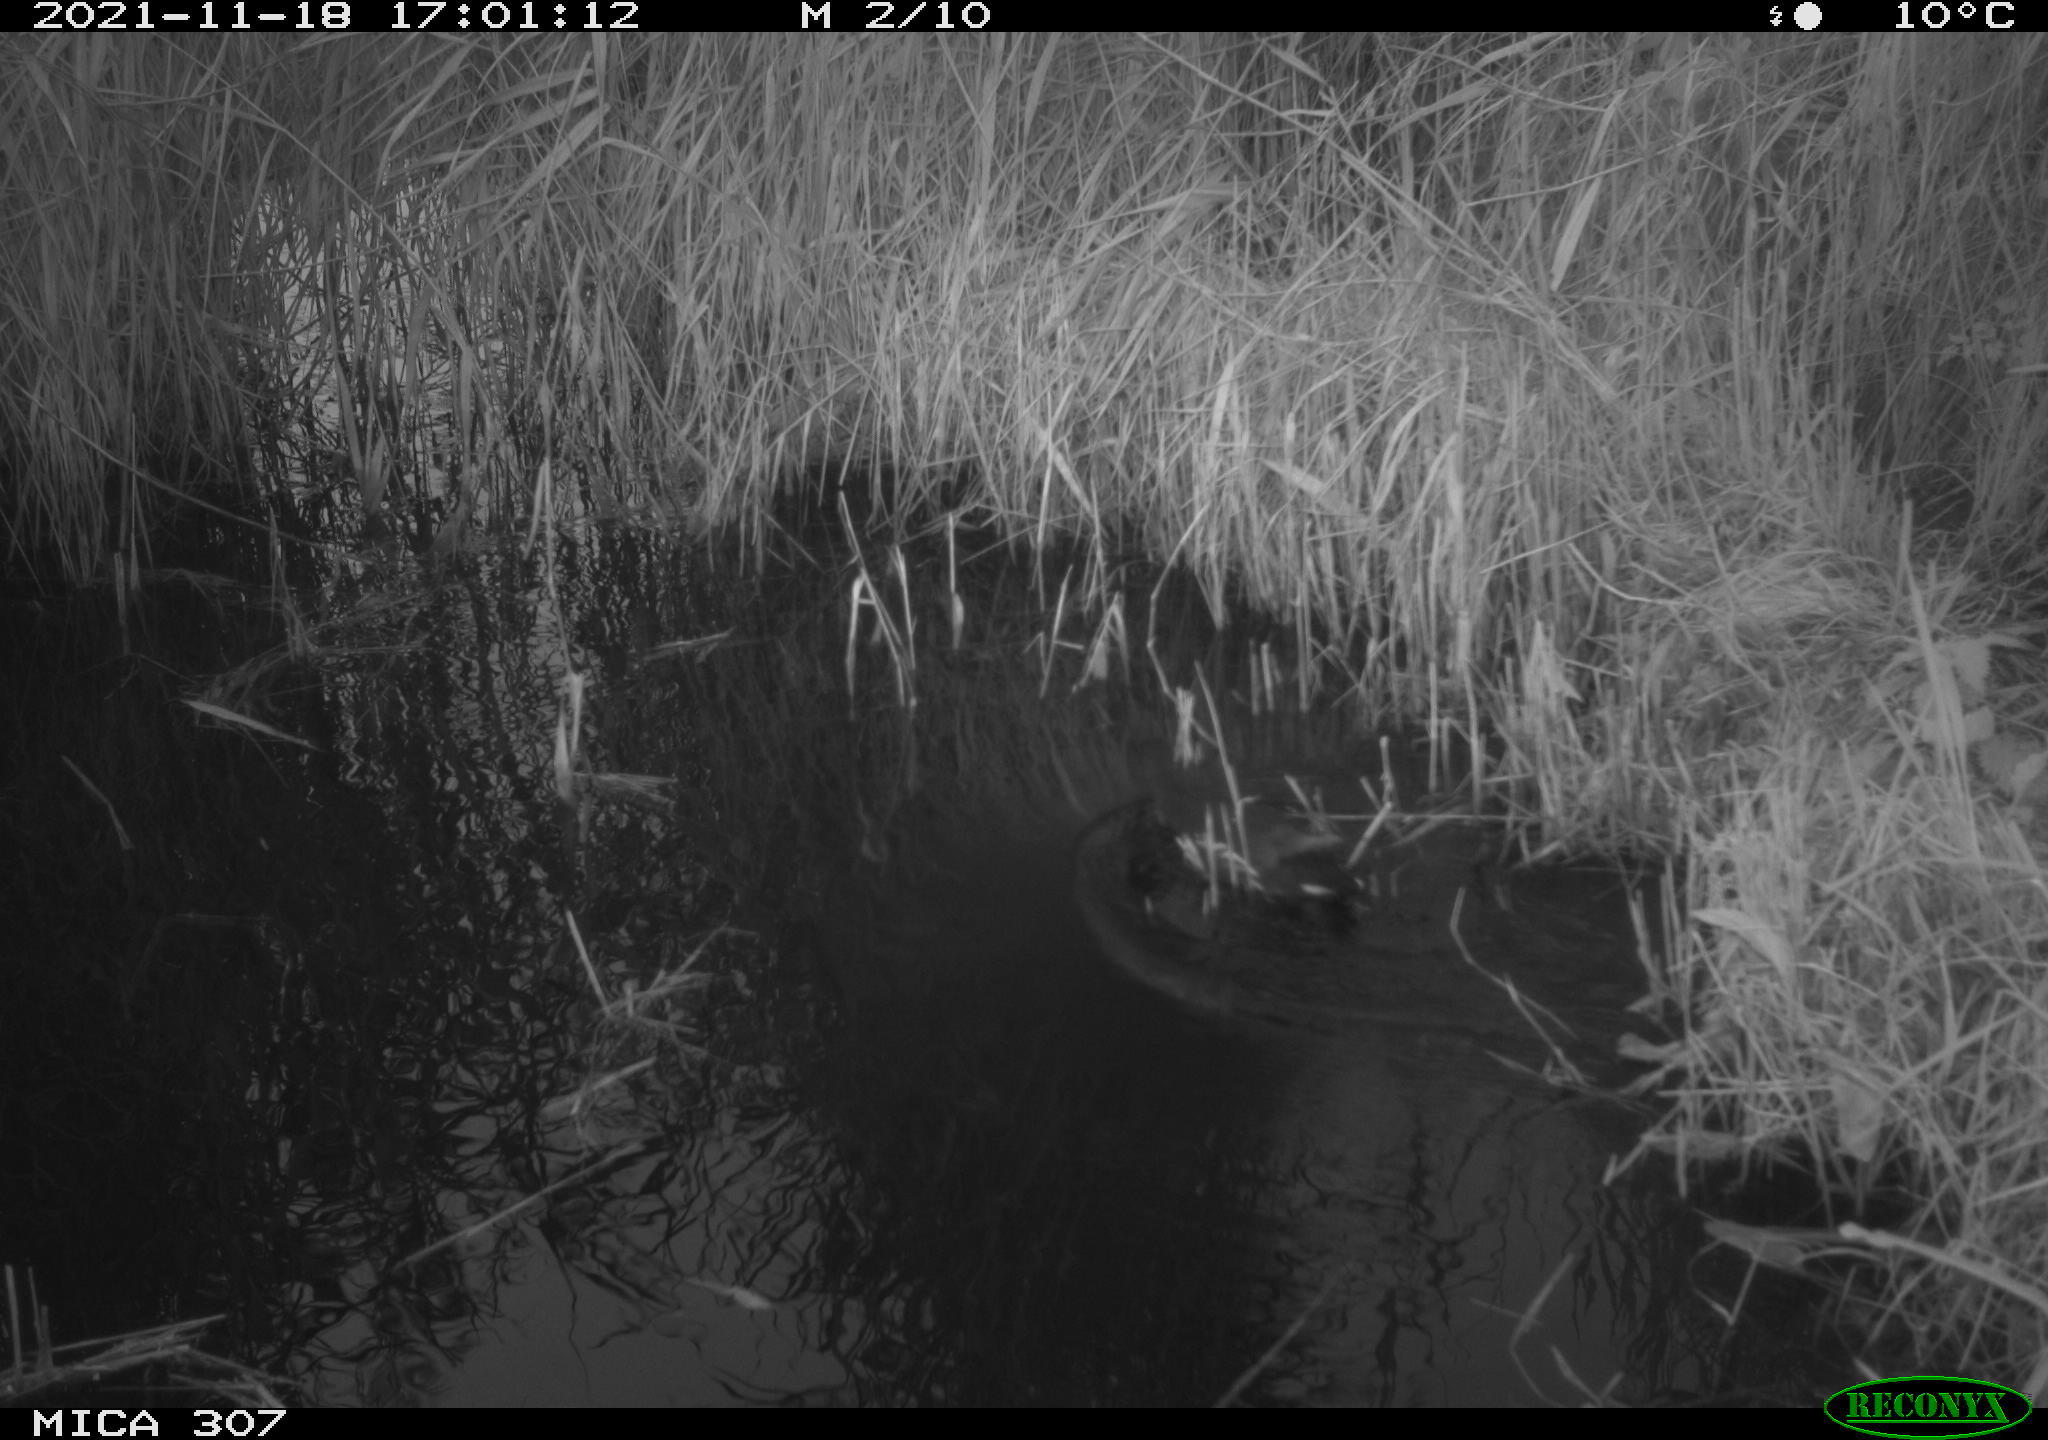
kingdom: Animalia
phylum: Chordata
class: Aves
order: Gruiformes
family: Rallidae
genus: Gallinula
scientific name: Gallinula chloropus
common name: Common moorhen
